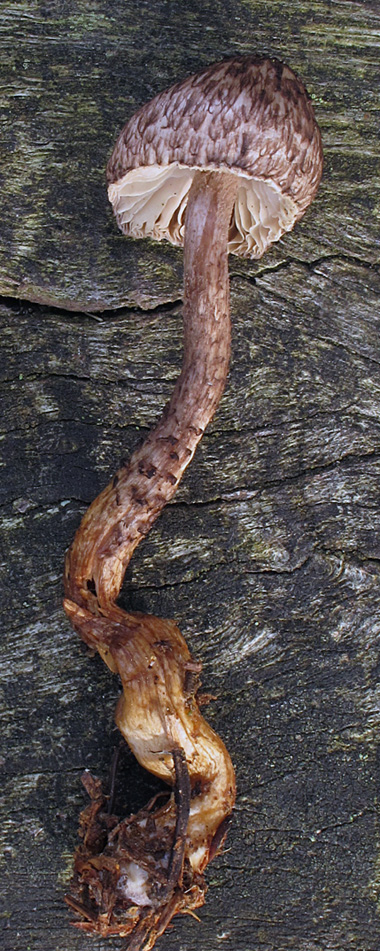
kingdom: Fungi
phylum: Basidiomycota
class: Agaricomycetes
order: Agaricales
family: Tricholomataceae
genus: Squamanita
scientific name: Squamanita pearsonii
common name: Pearsons knoldfod
